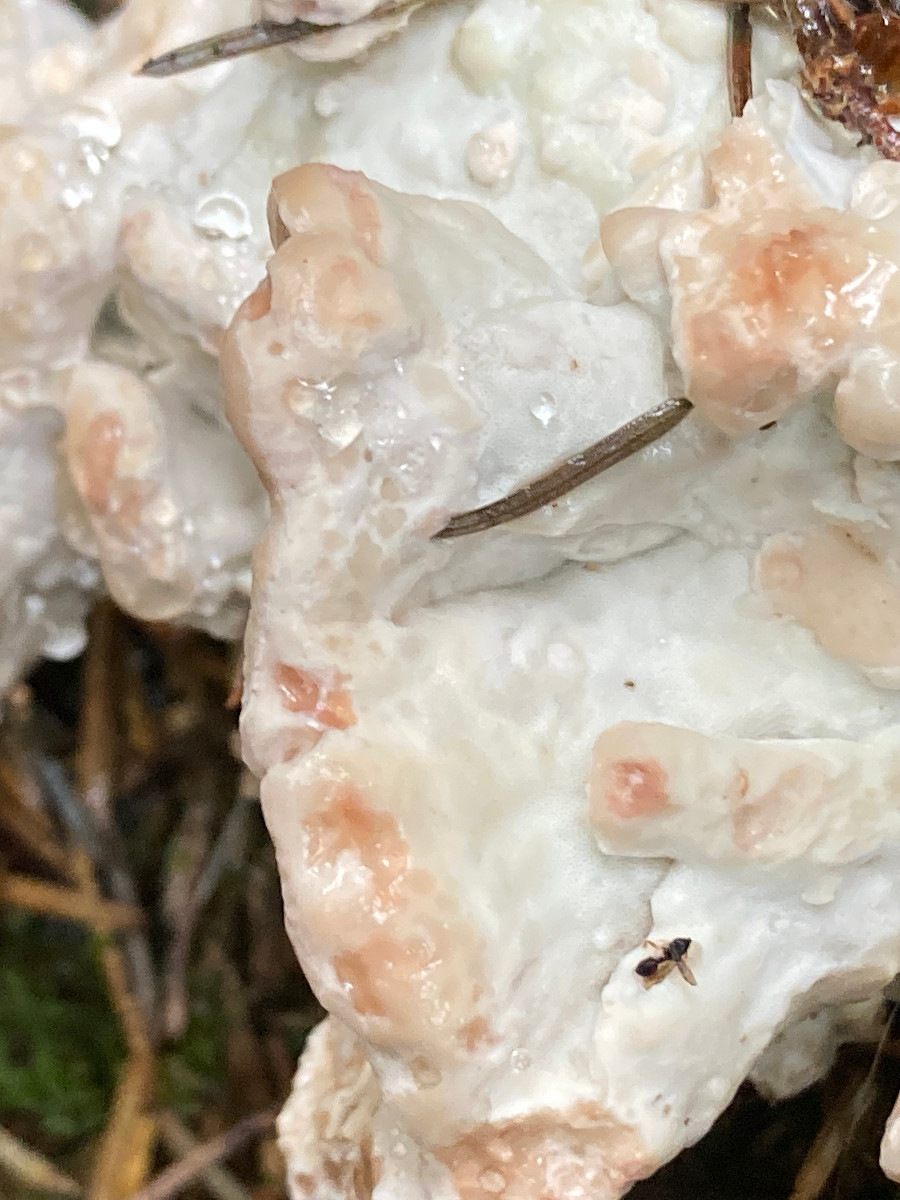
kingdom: Fungi
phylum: Basidiomycota
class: Agaricomycetes
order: Polyporales
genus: Calcipostia
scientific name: Calcipostia guttulata
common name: dråbe-kødporesvamp
